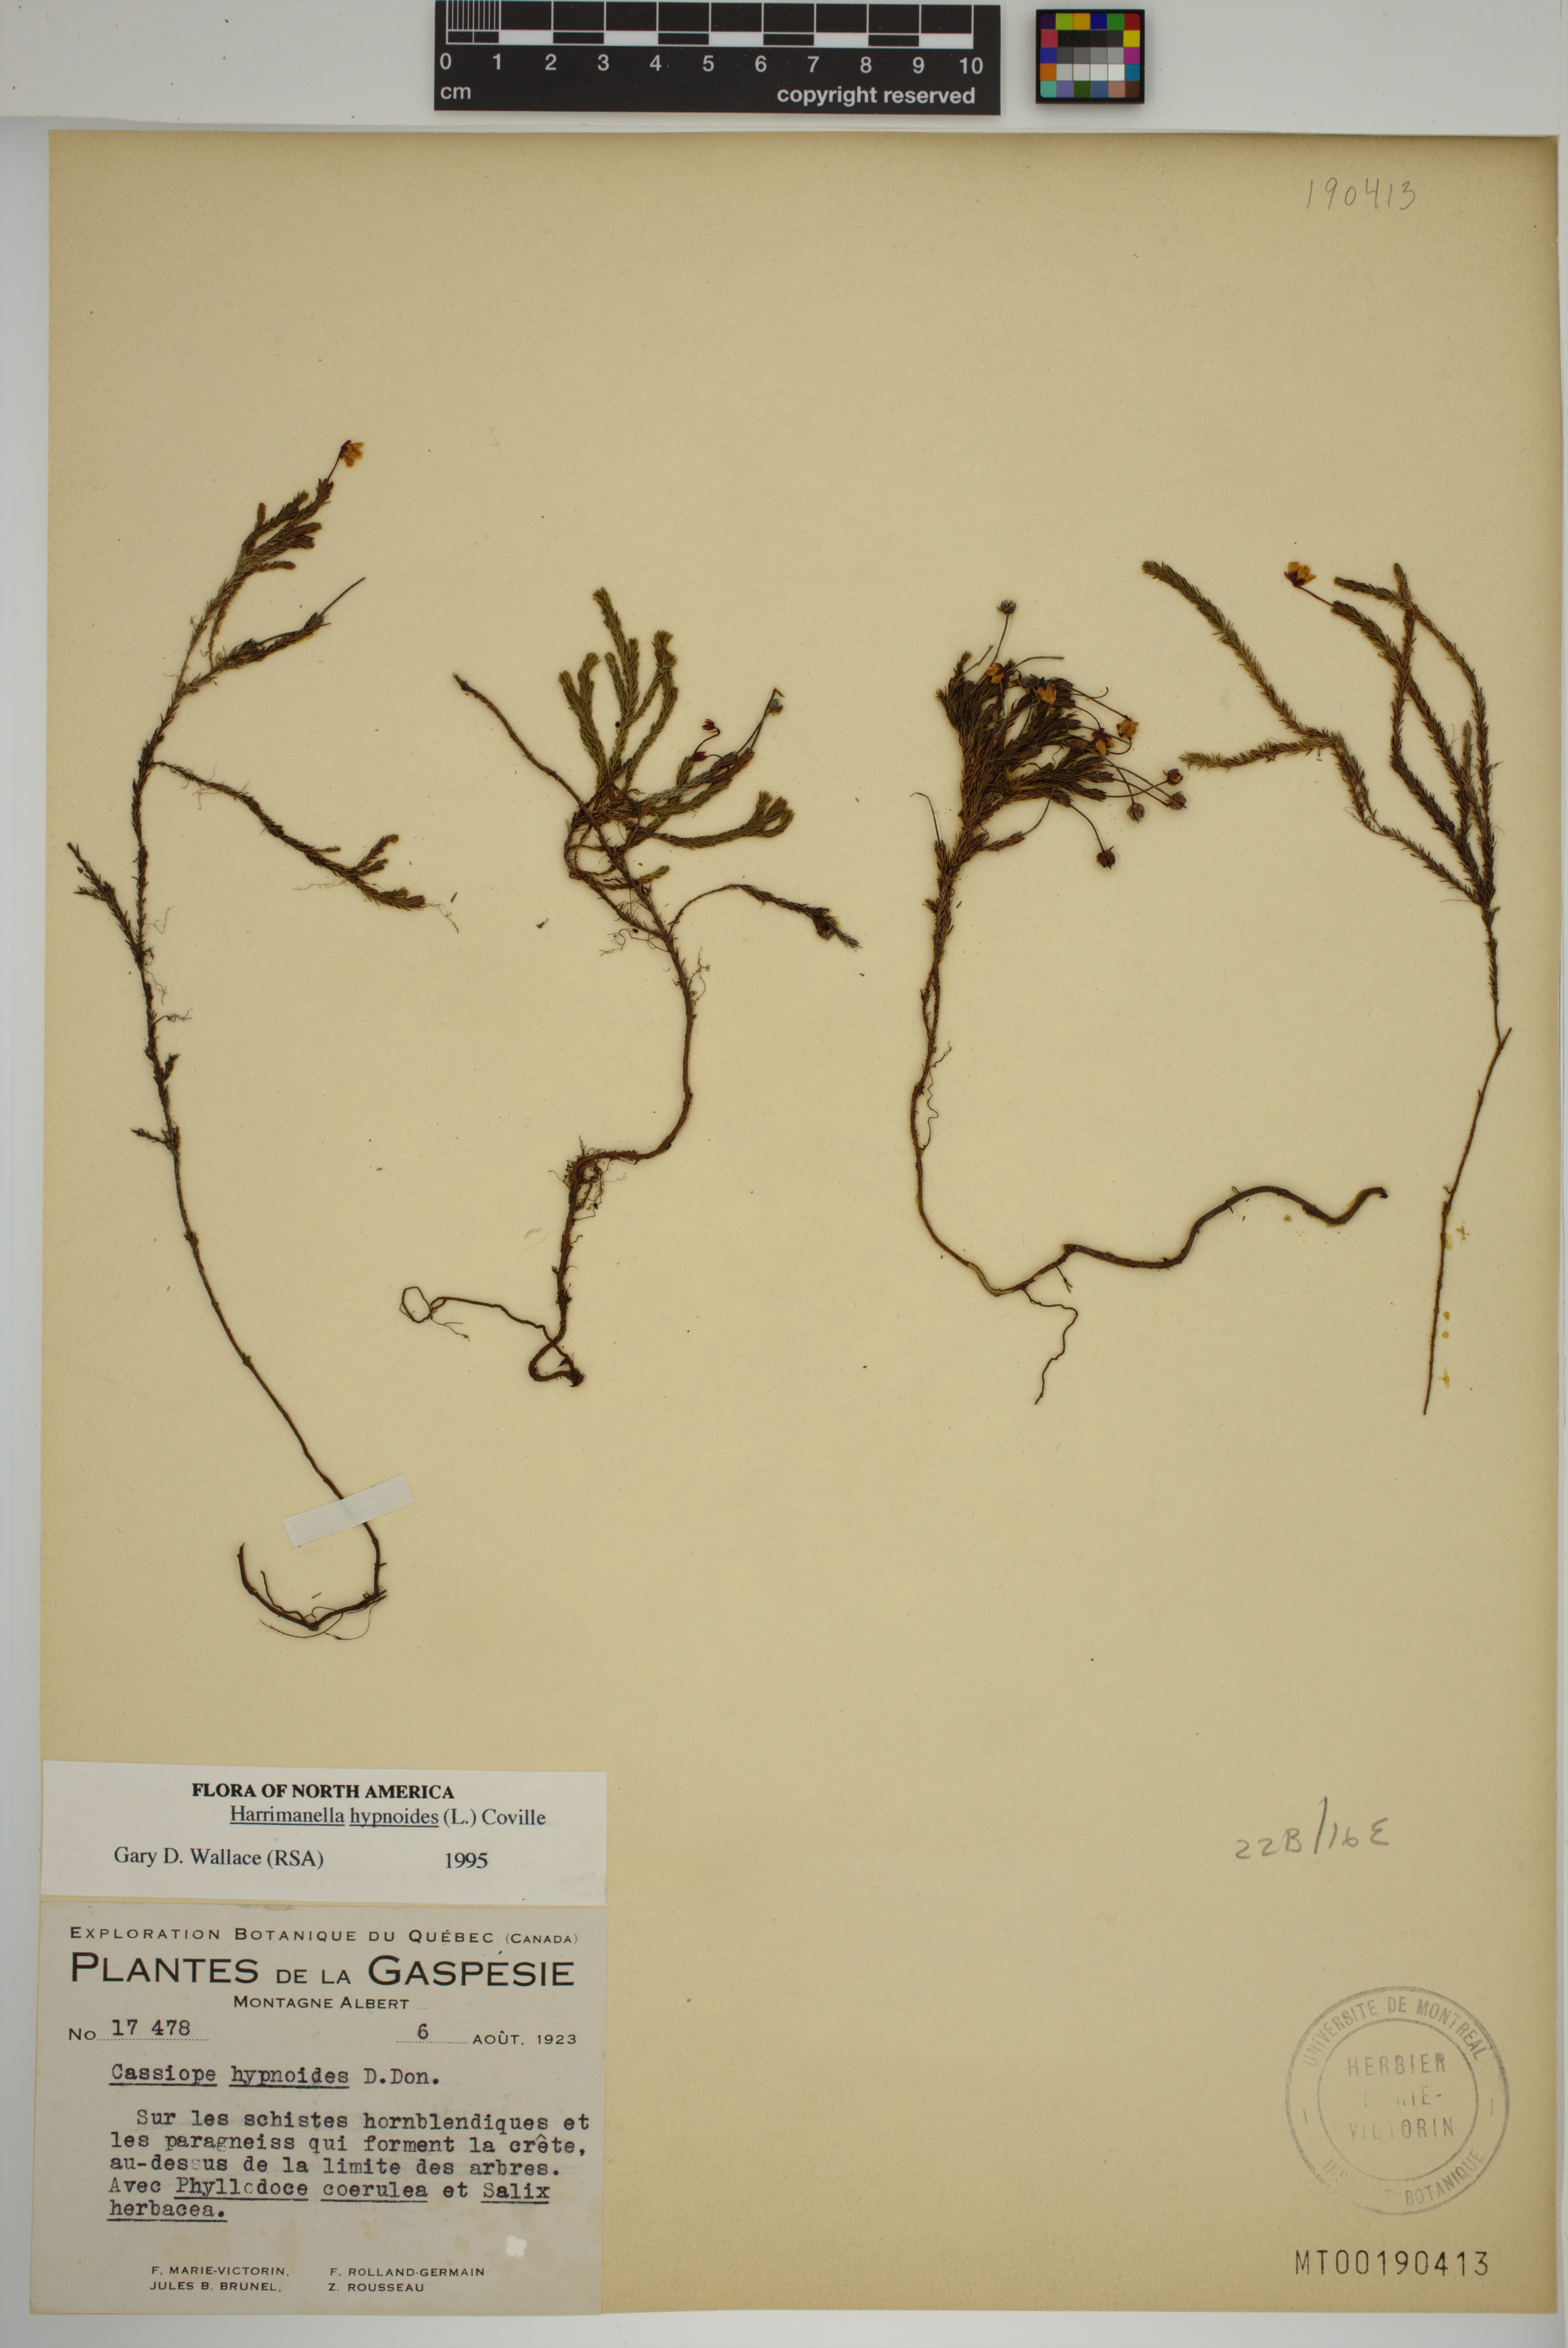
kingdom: Plantae
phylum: Tracheophyta
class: Magnoliopsida
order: Ericales
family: Ericaceae
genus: Harrimanella
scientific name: Harrimanella hypnoides
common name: Moss bell heather
